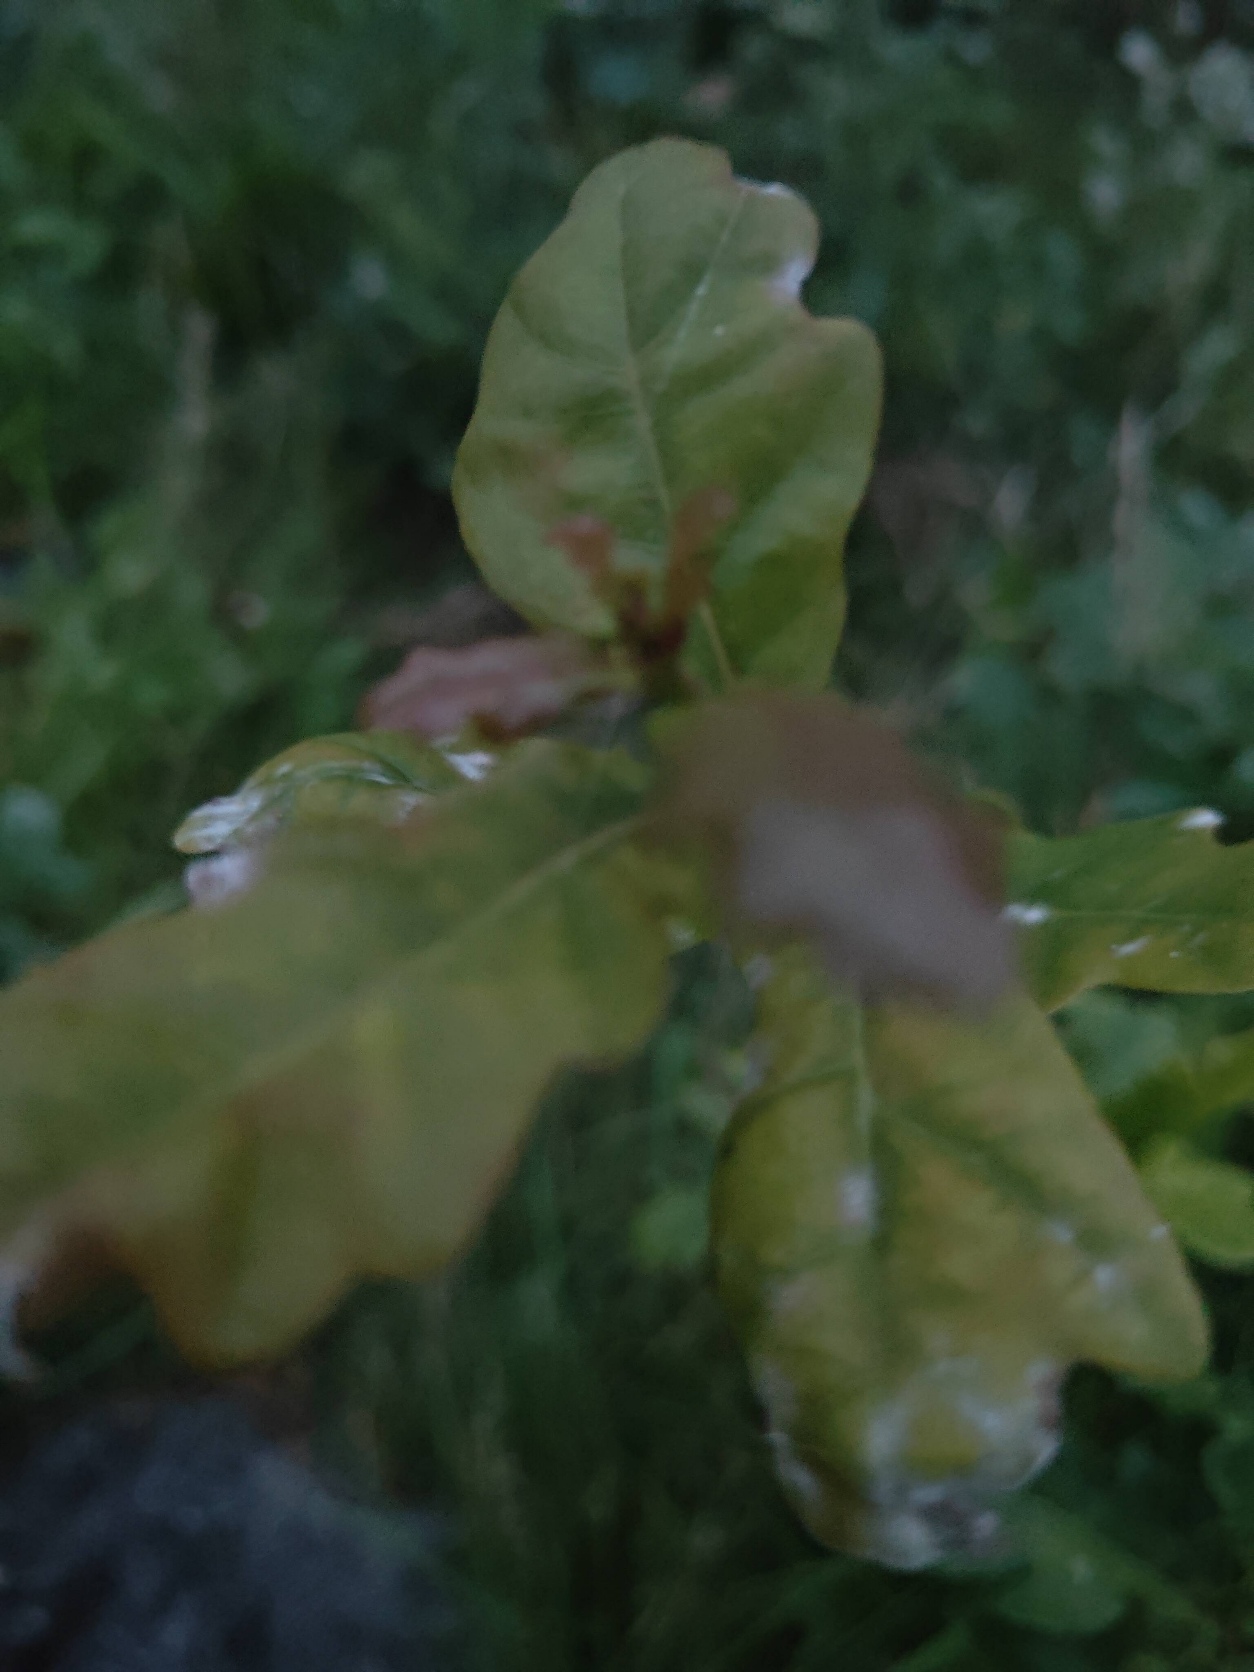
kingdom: Plantae
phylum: Tracheophyta
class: Magnoliopsida
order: Fagales
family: Fagaceae
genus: Quercus
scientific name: Quercus robur
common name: Stilk-eg/almindelig eg
